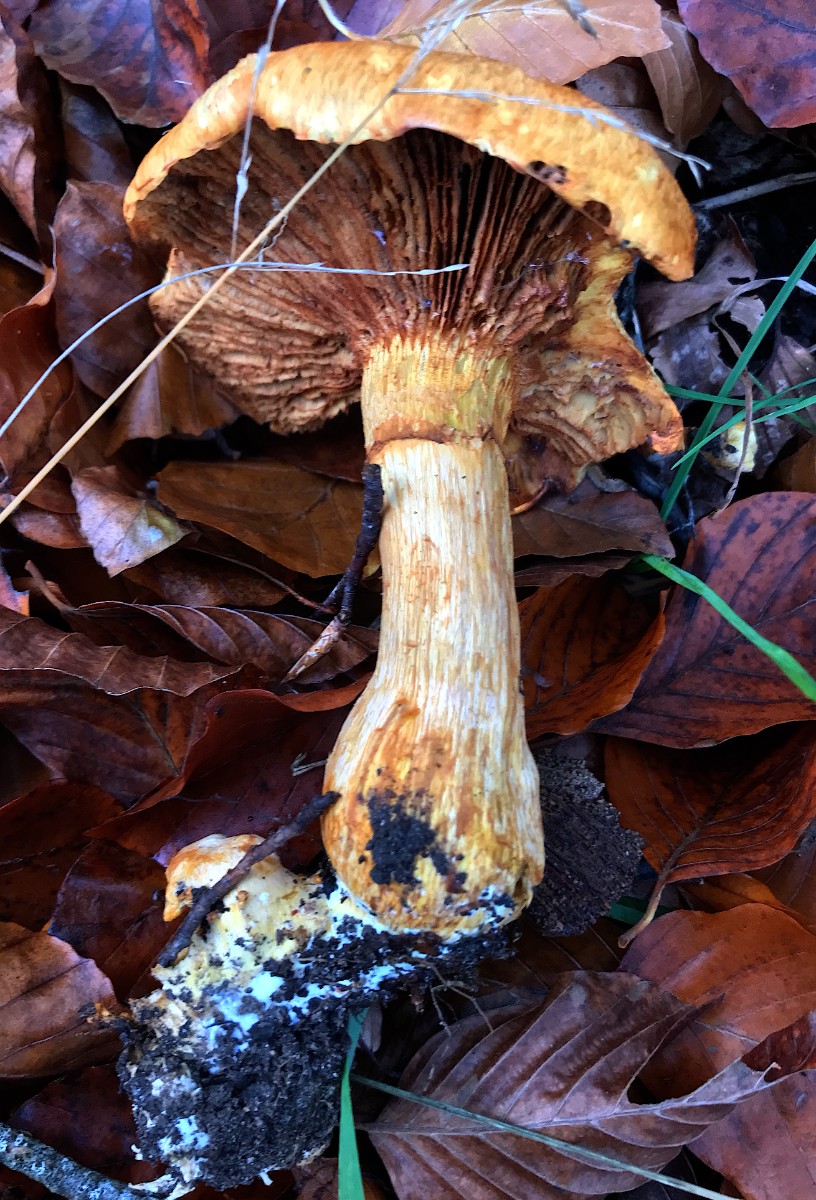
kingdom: Fungi
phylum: Basidiomycota
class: Agaricomycetes
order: Agaricales
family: Hymenogastraceae
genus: Gymnopilus
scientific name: Gymnopilus spectabilis
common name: fibret flammehat
